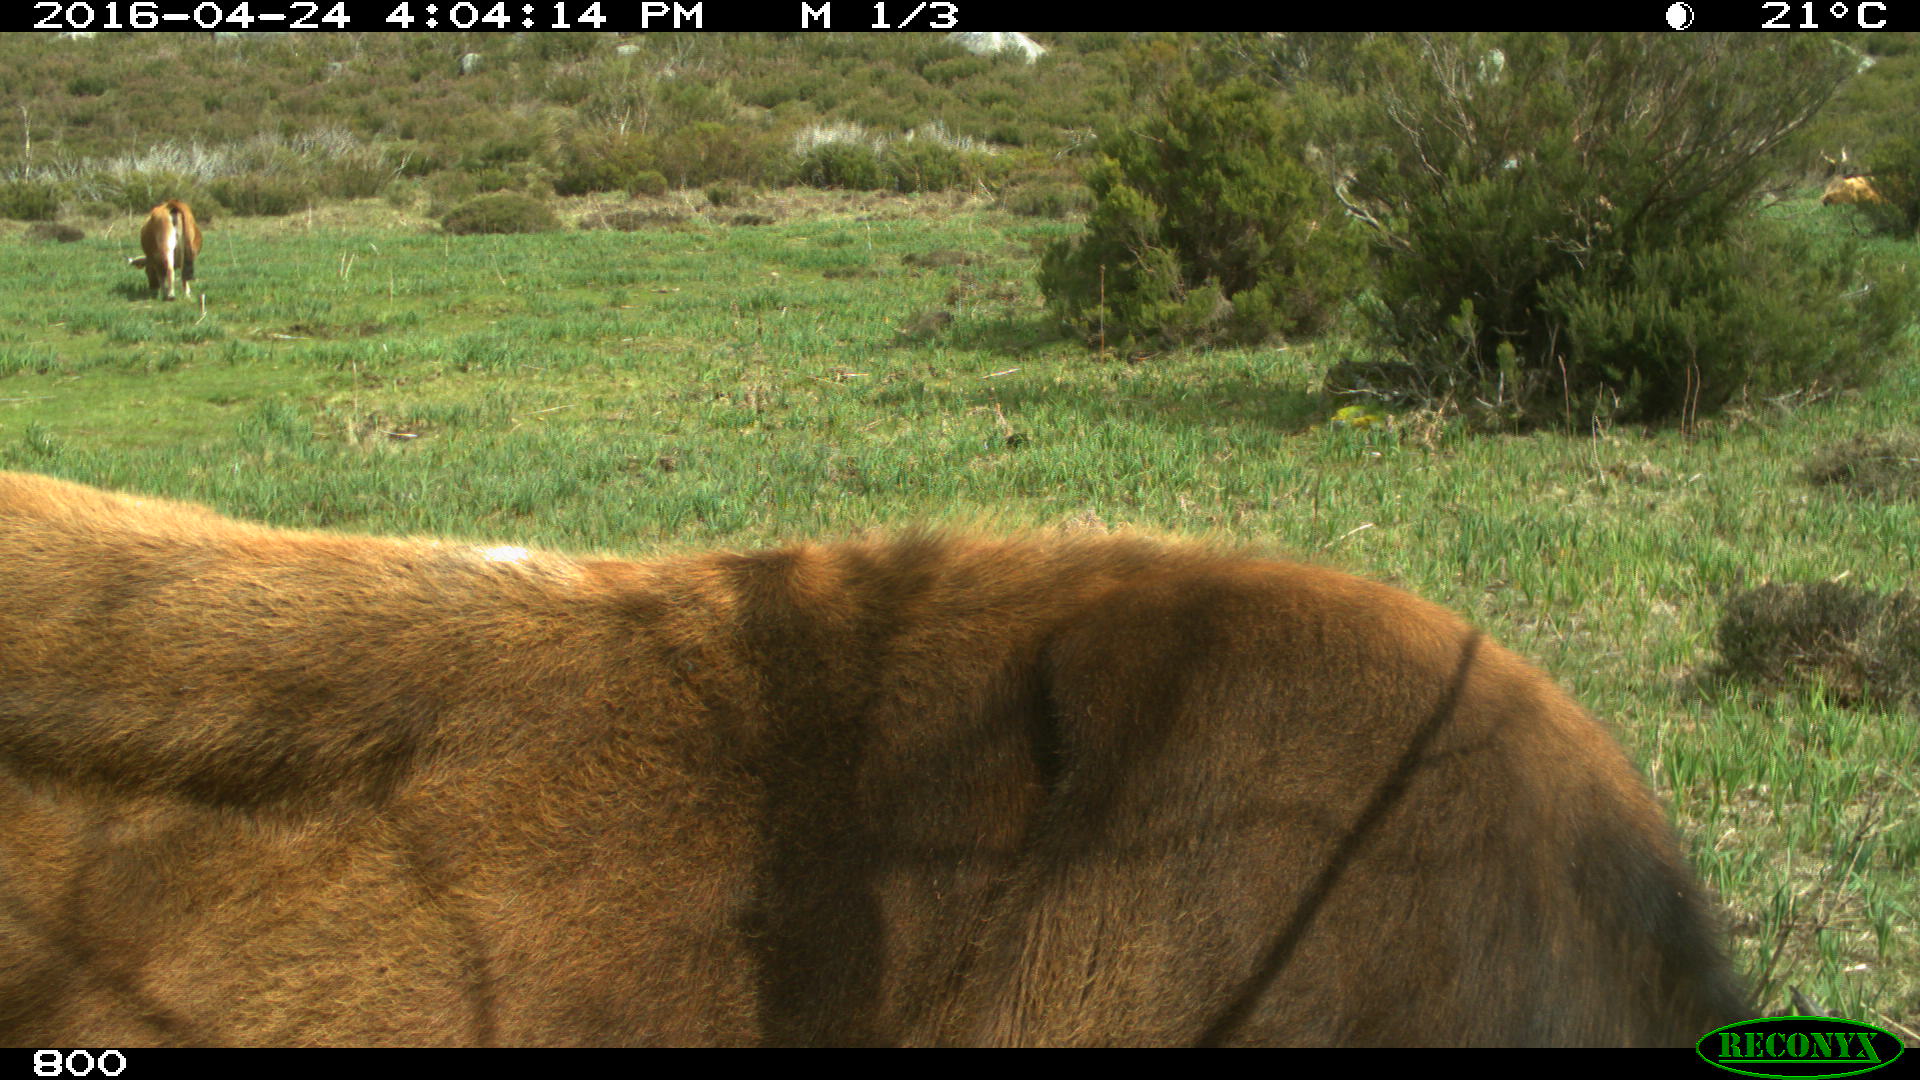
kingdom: Animalia
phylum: Chordata
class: Mammalia
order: Artiodactyla
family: Bovidae
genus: Bos
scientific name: Bos taurus
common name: Domesticated cattle
